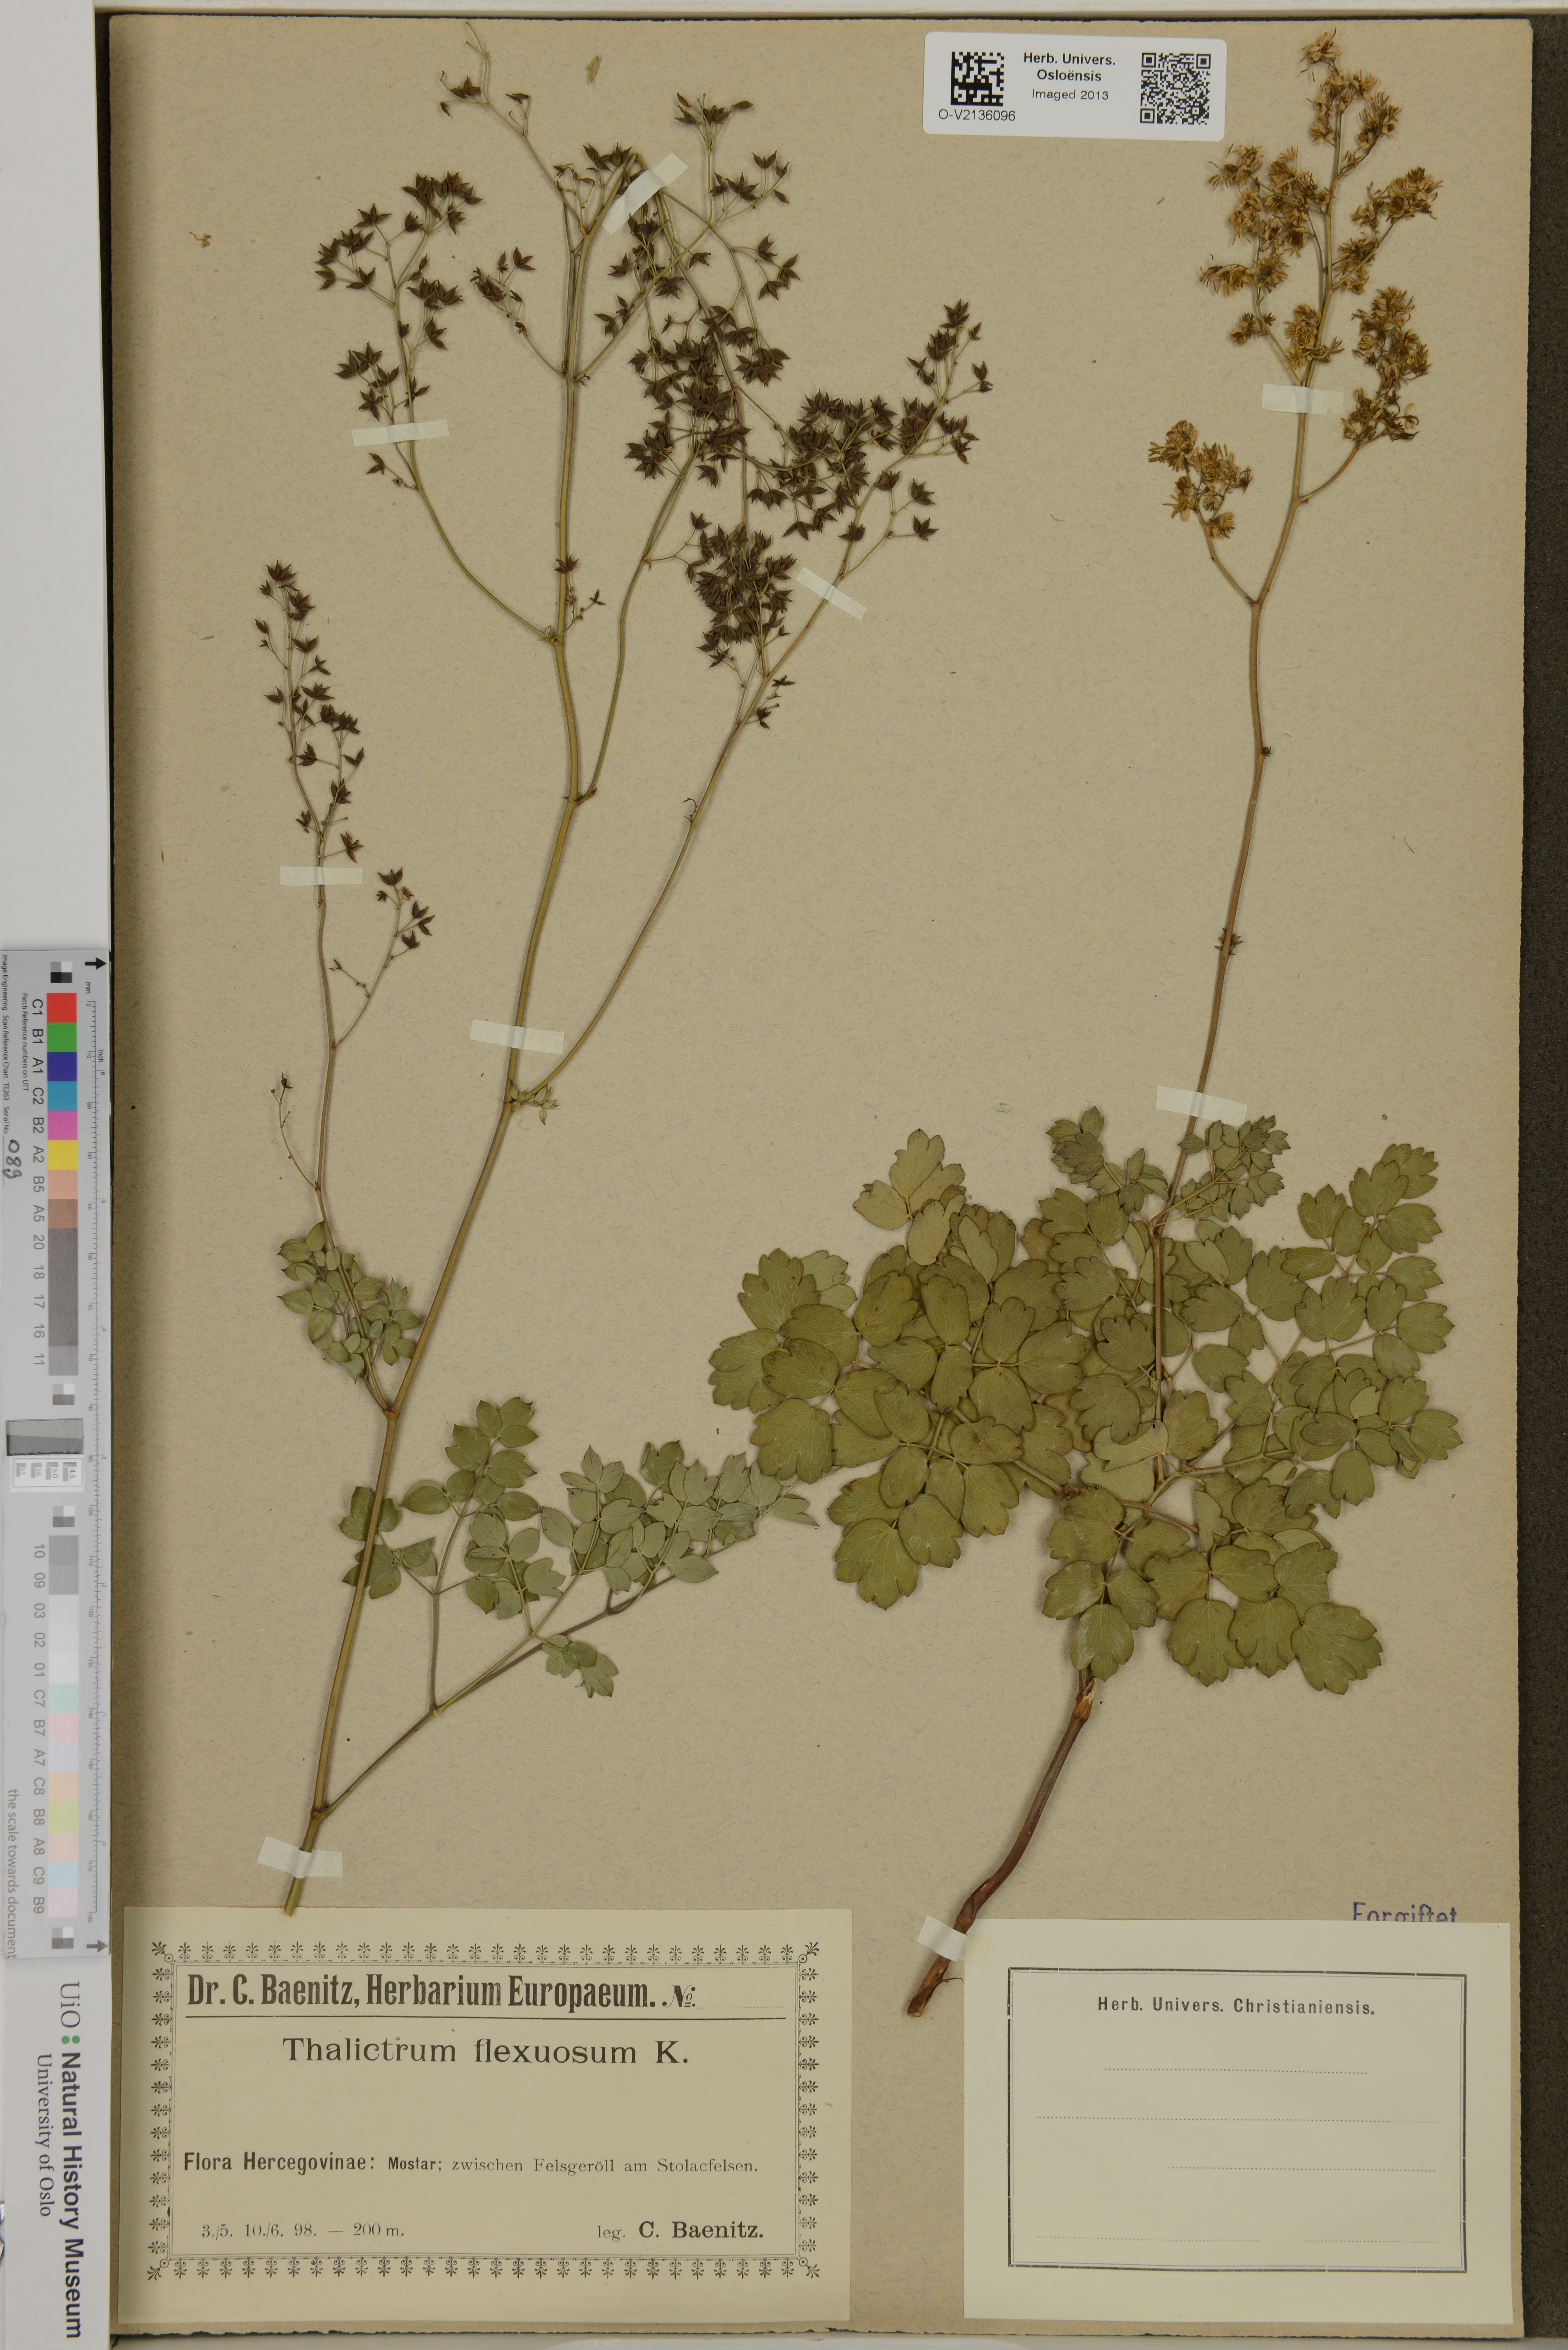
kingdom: Plantae
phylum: Tracheophyta
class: Magnoliopsida
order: Ranunculales
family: Ranunculaceae
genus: Thalictrum
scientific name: Thalictrum minus
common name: Lesser meadow-rue
